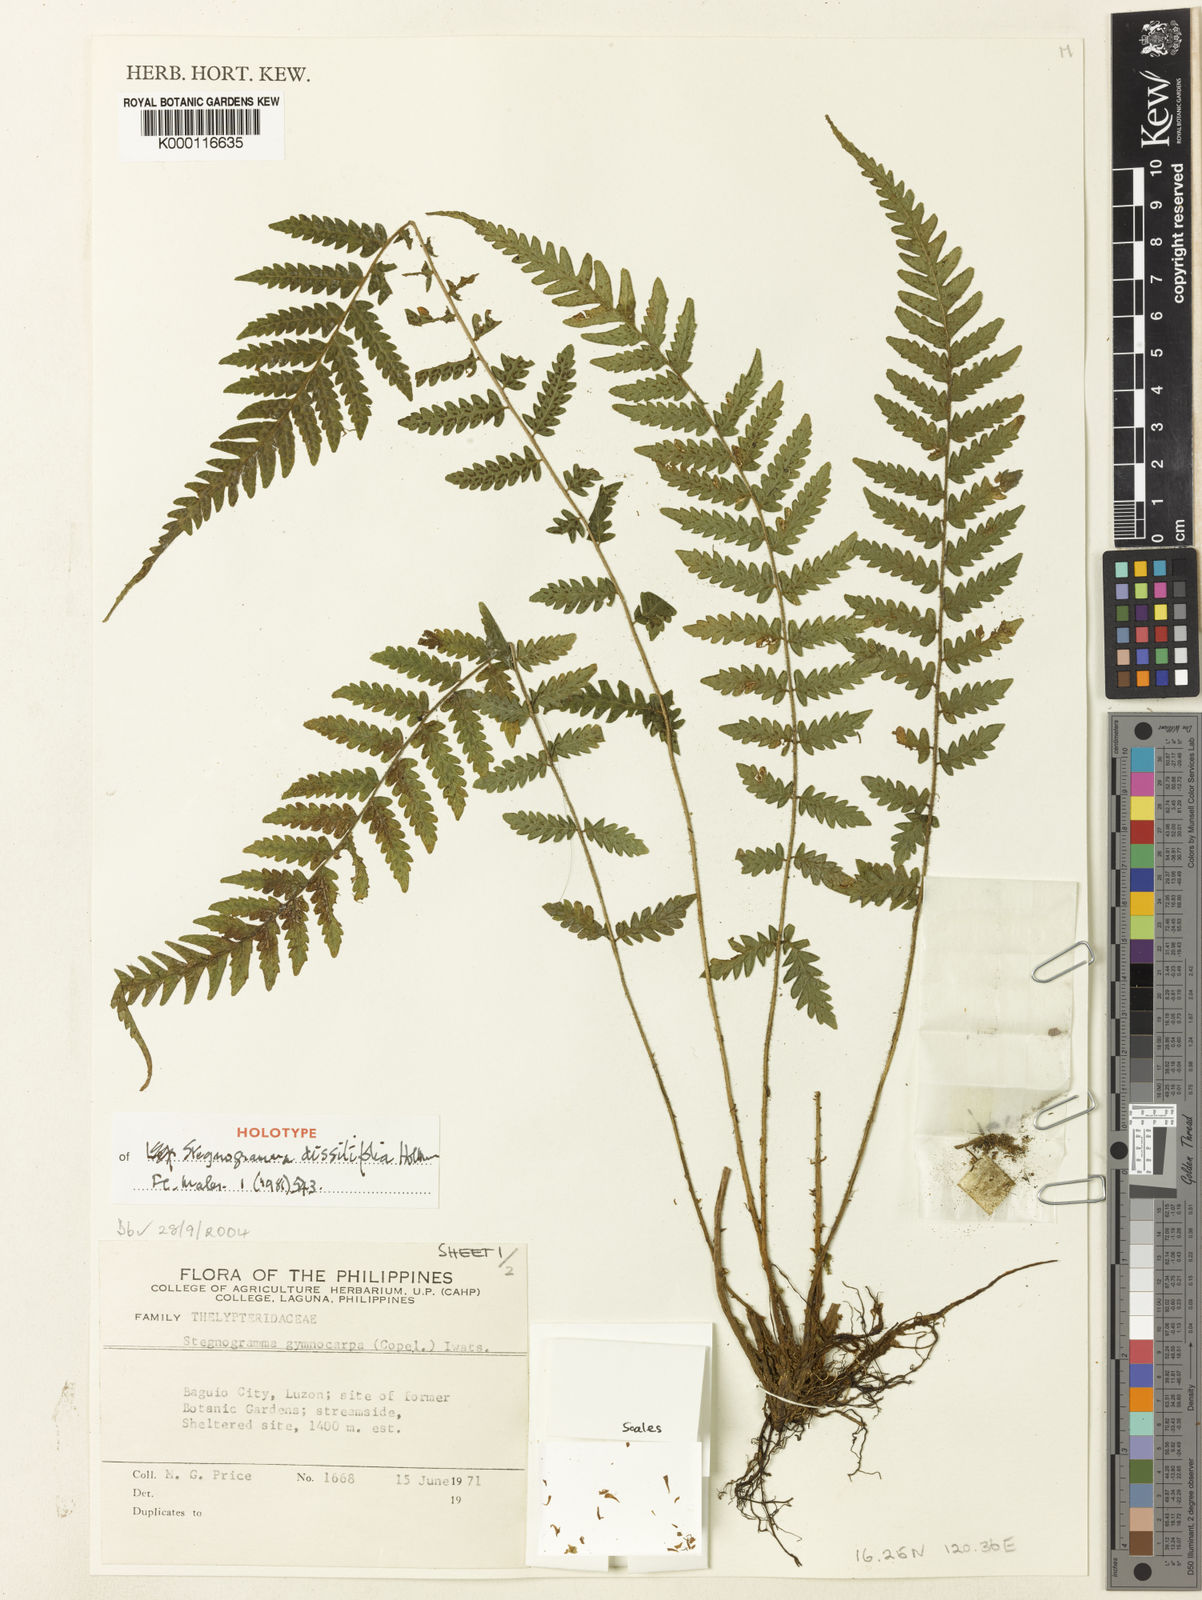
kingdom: Plantae
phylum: Tracheophyta
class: Polypodiopsida
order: Polypodiales
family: Thelypteridaceae
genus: Leptogramma
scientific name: Leptogramma dissitifolia
